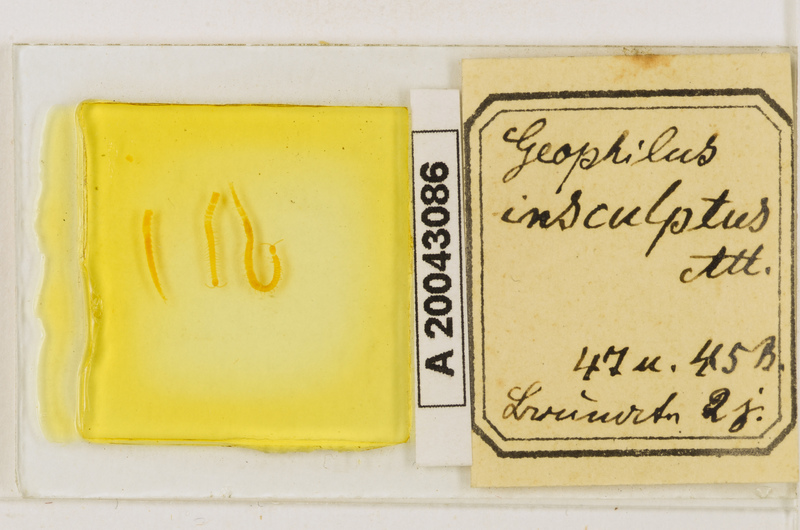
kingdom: Animalia
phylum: Arthropoda
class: Chilopoda
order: Geophilomorpha
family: Geophilidae
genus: Geophilus
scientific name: Geophilus insculptus
